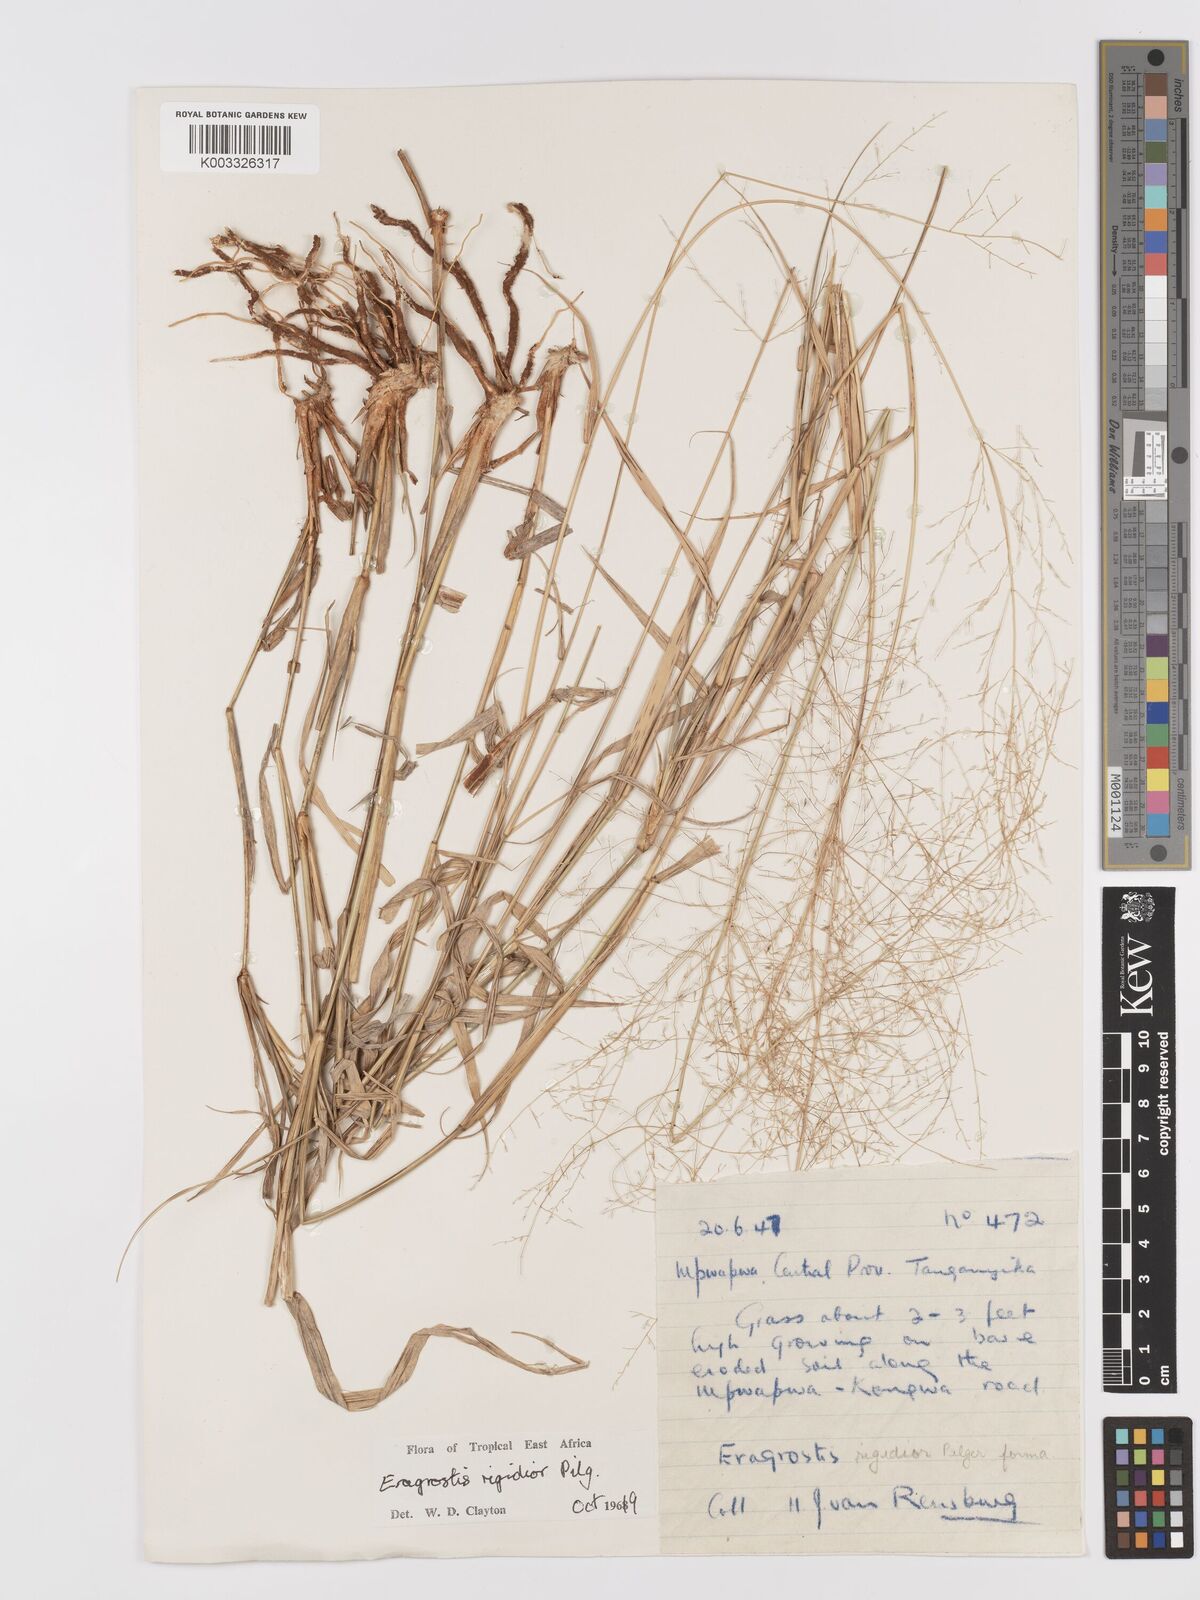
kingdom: Plantae
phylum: Tracheophyta
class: Liliopsida
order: Poales
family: Poaceae
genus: Eragrostis
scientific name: Eragrostis cylindriflora
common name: Cylinderflower lovegrass
